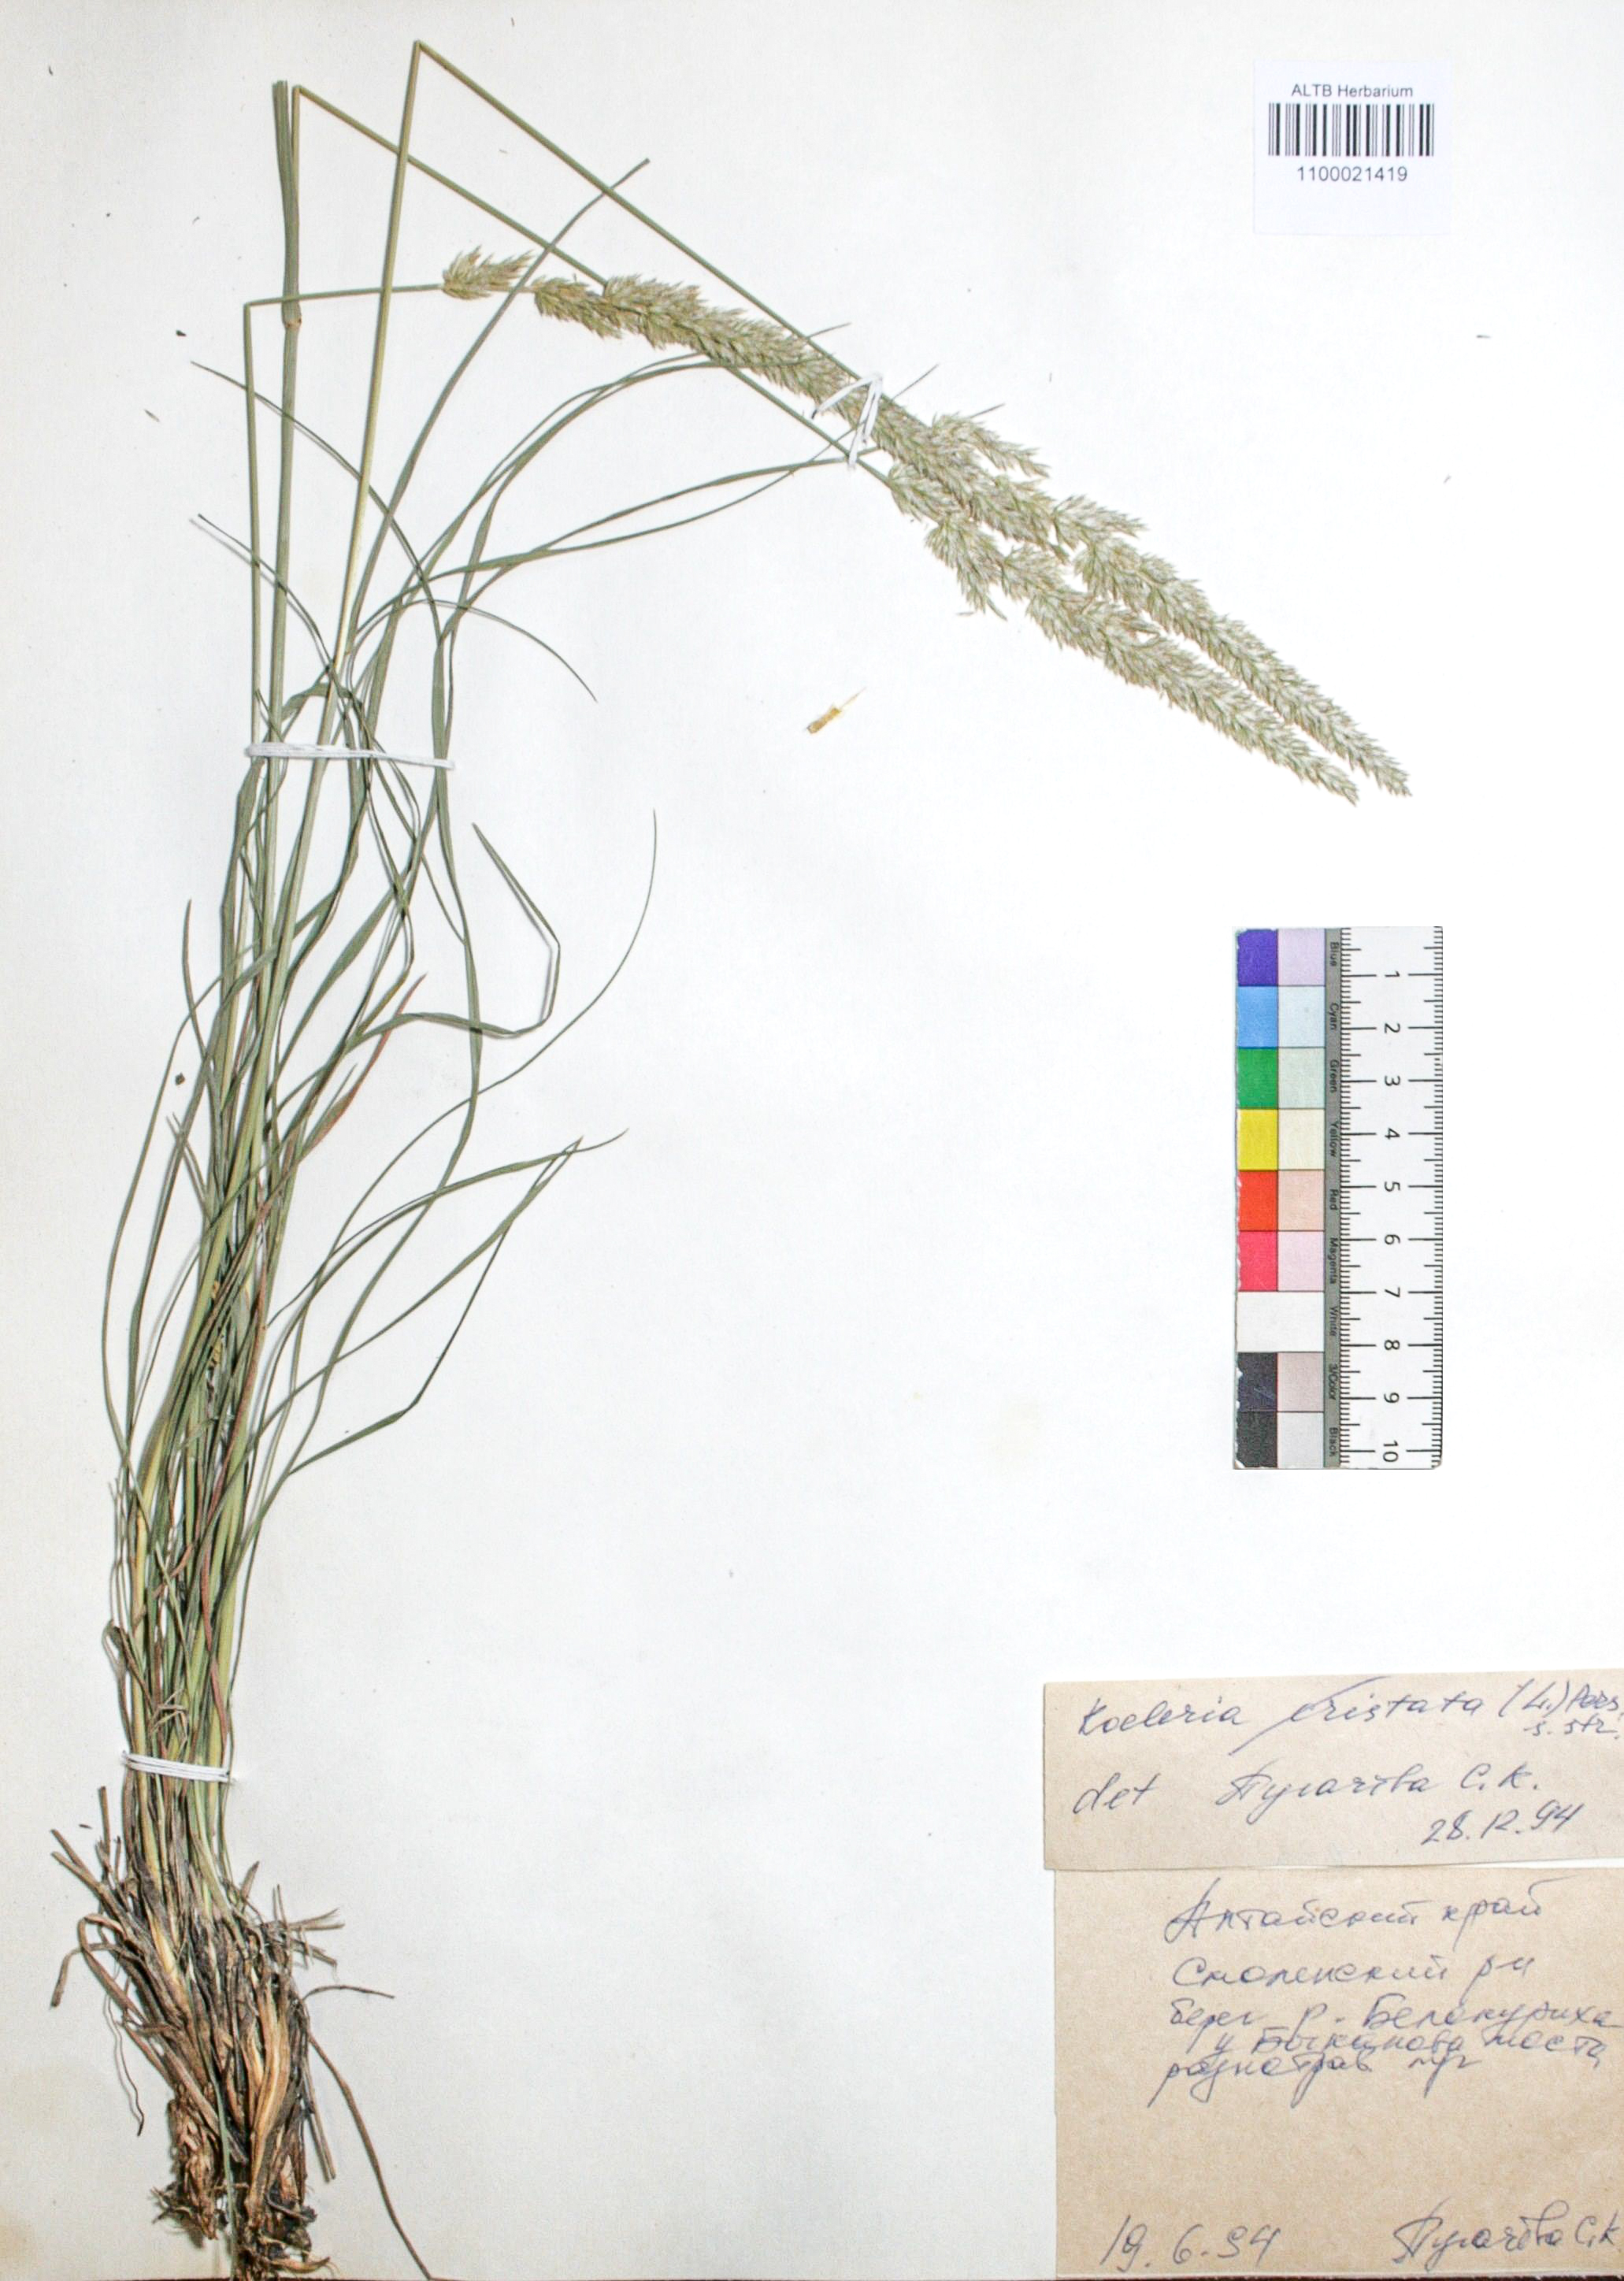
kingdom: Plantae
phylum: Tracheophyta
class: Liliopsida
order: Poales
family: Poaceae
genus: Koeleria
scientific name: Koeleria pyramidata
